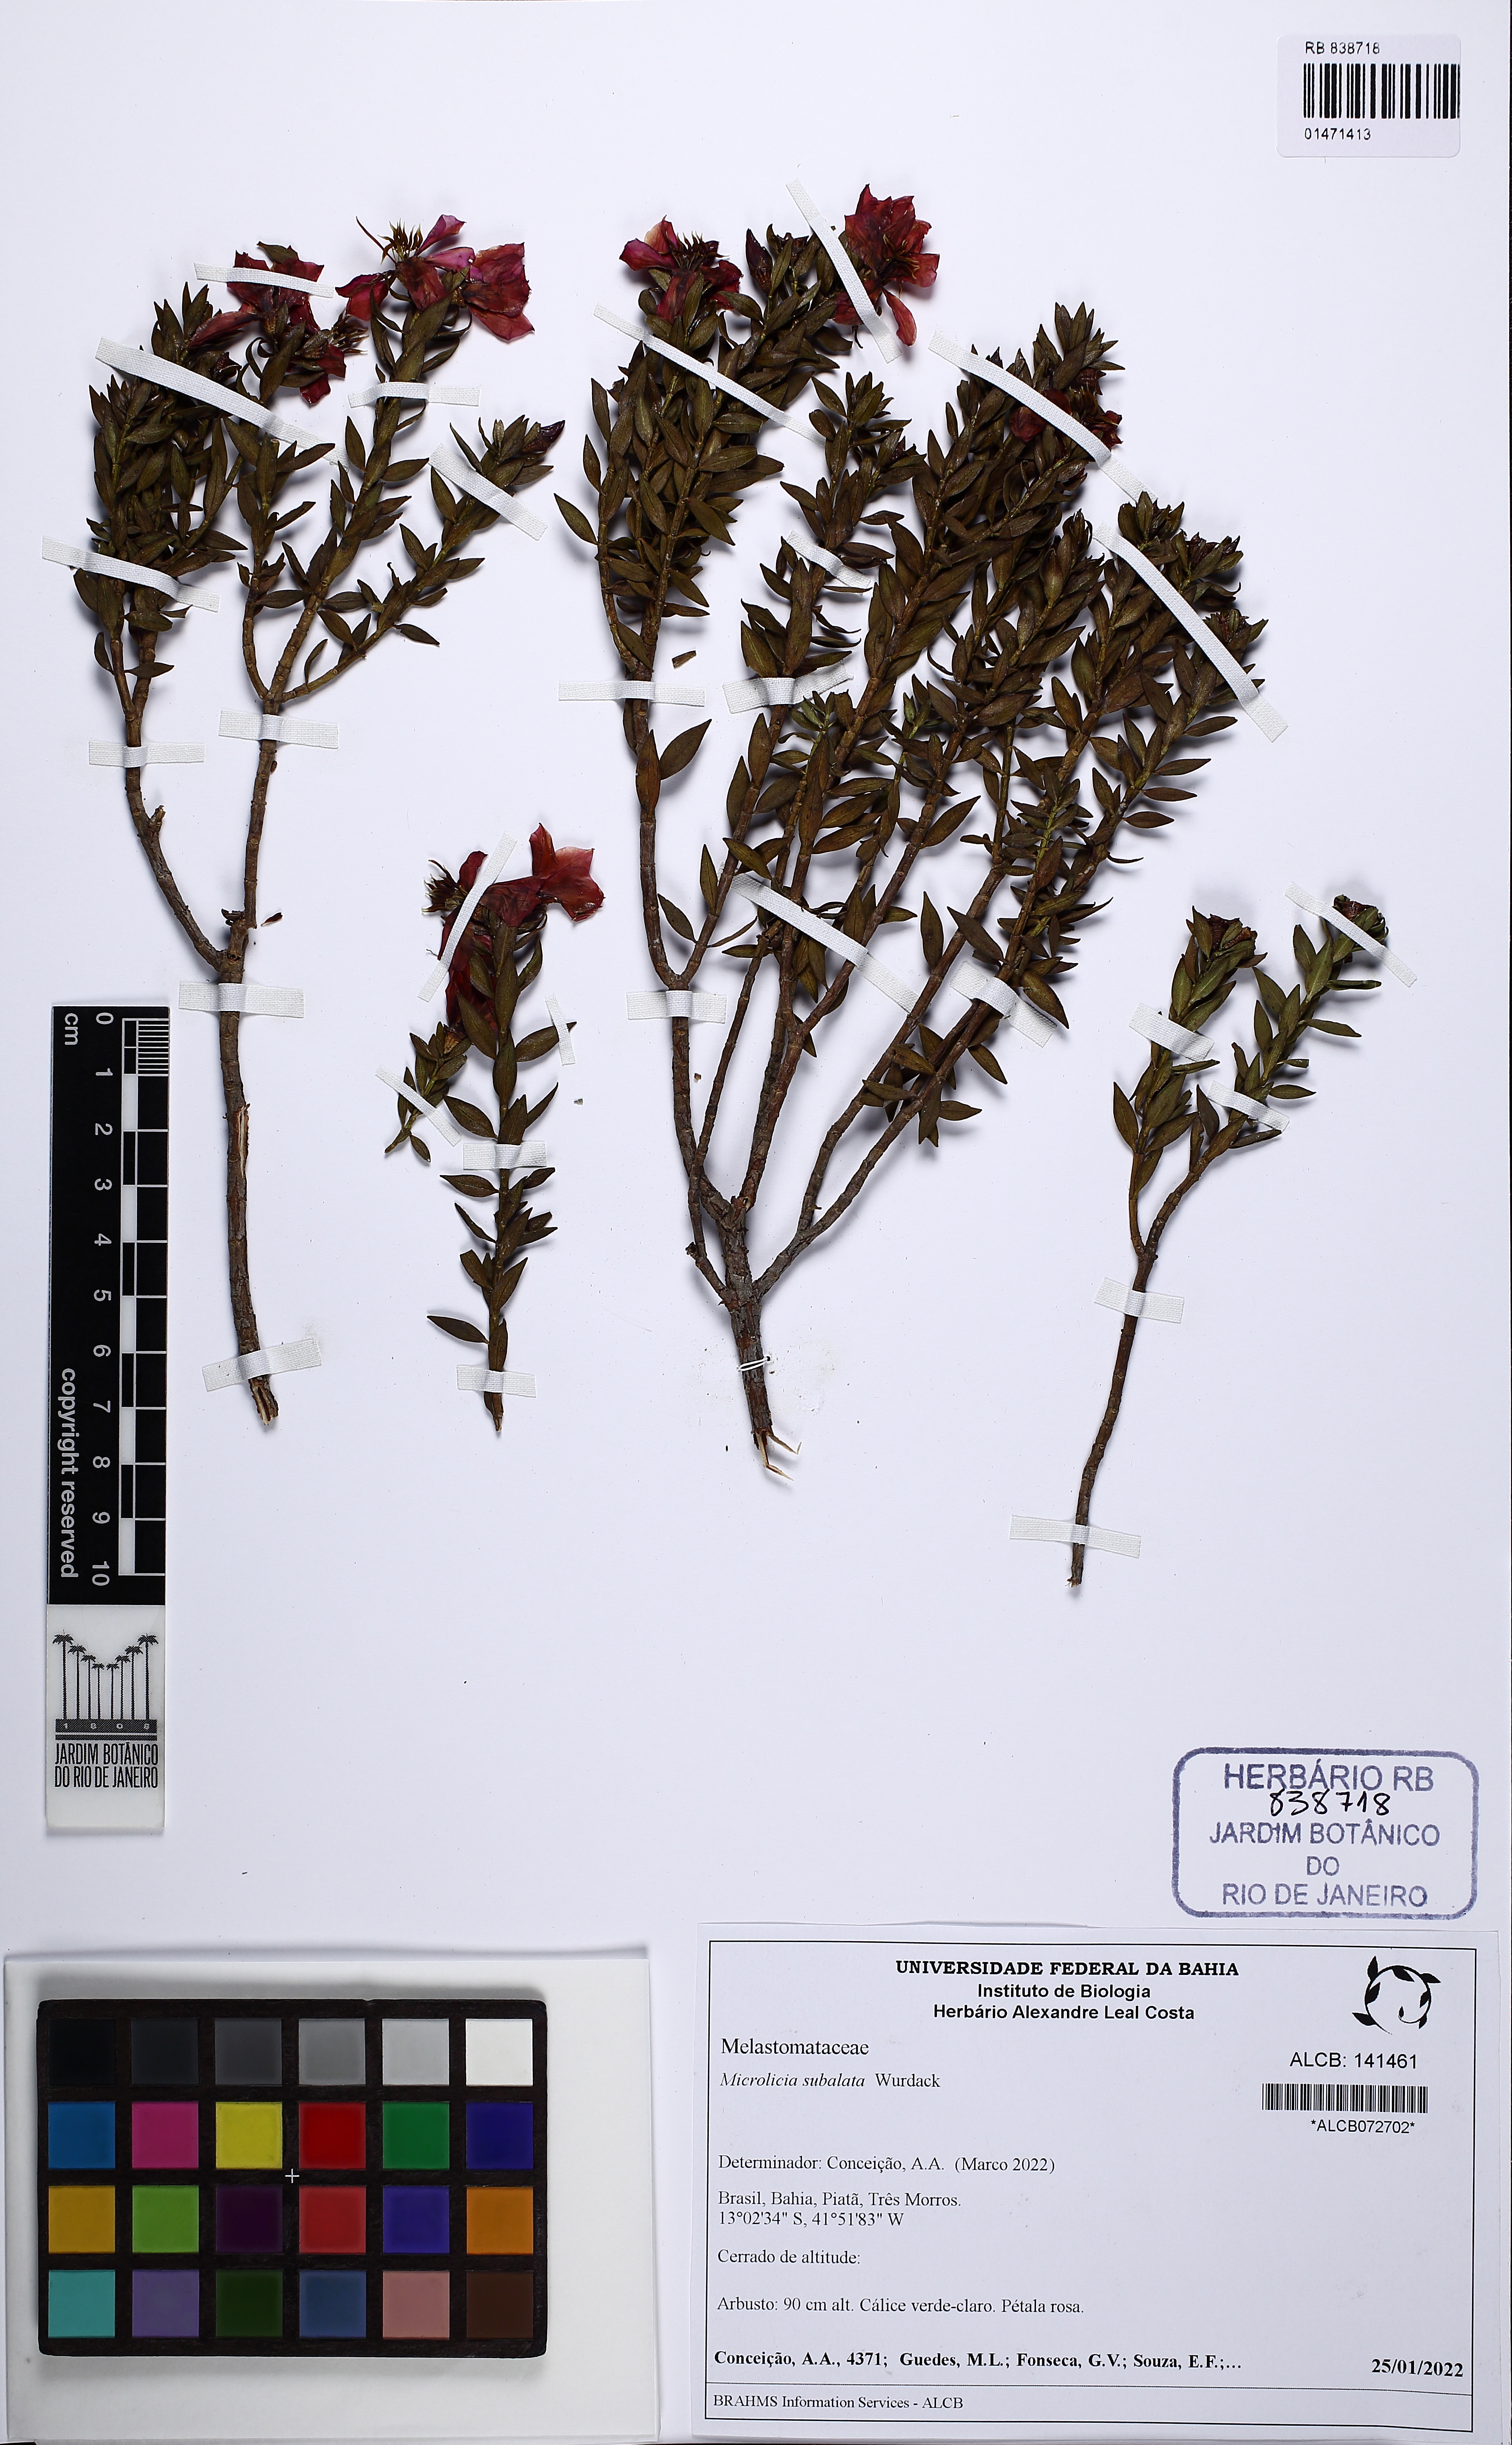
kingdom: Plantae
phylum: Tracheophyta
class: Magnoliopsida
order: Myrtales
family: Melastomataceae
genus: Microlicia
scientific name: Microlicia balsamifera
